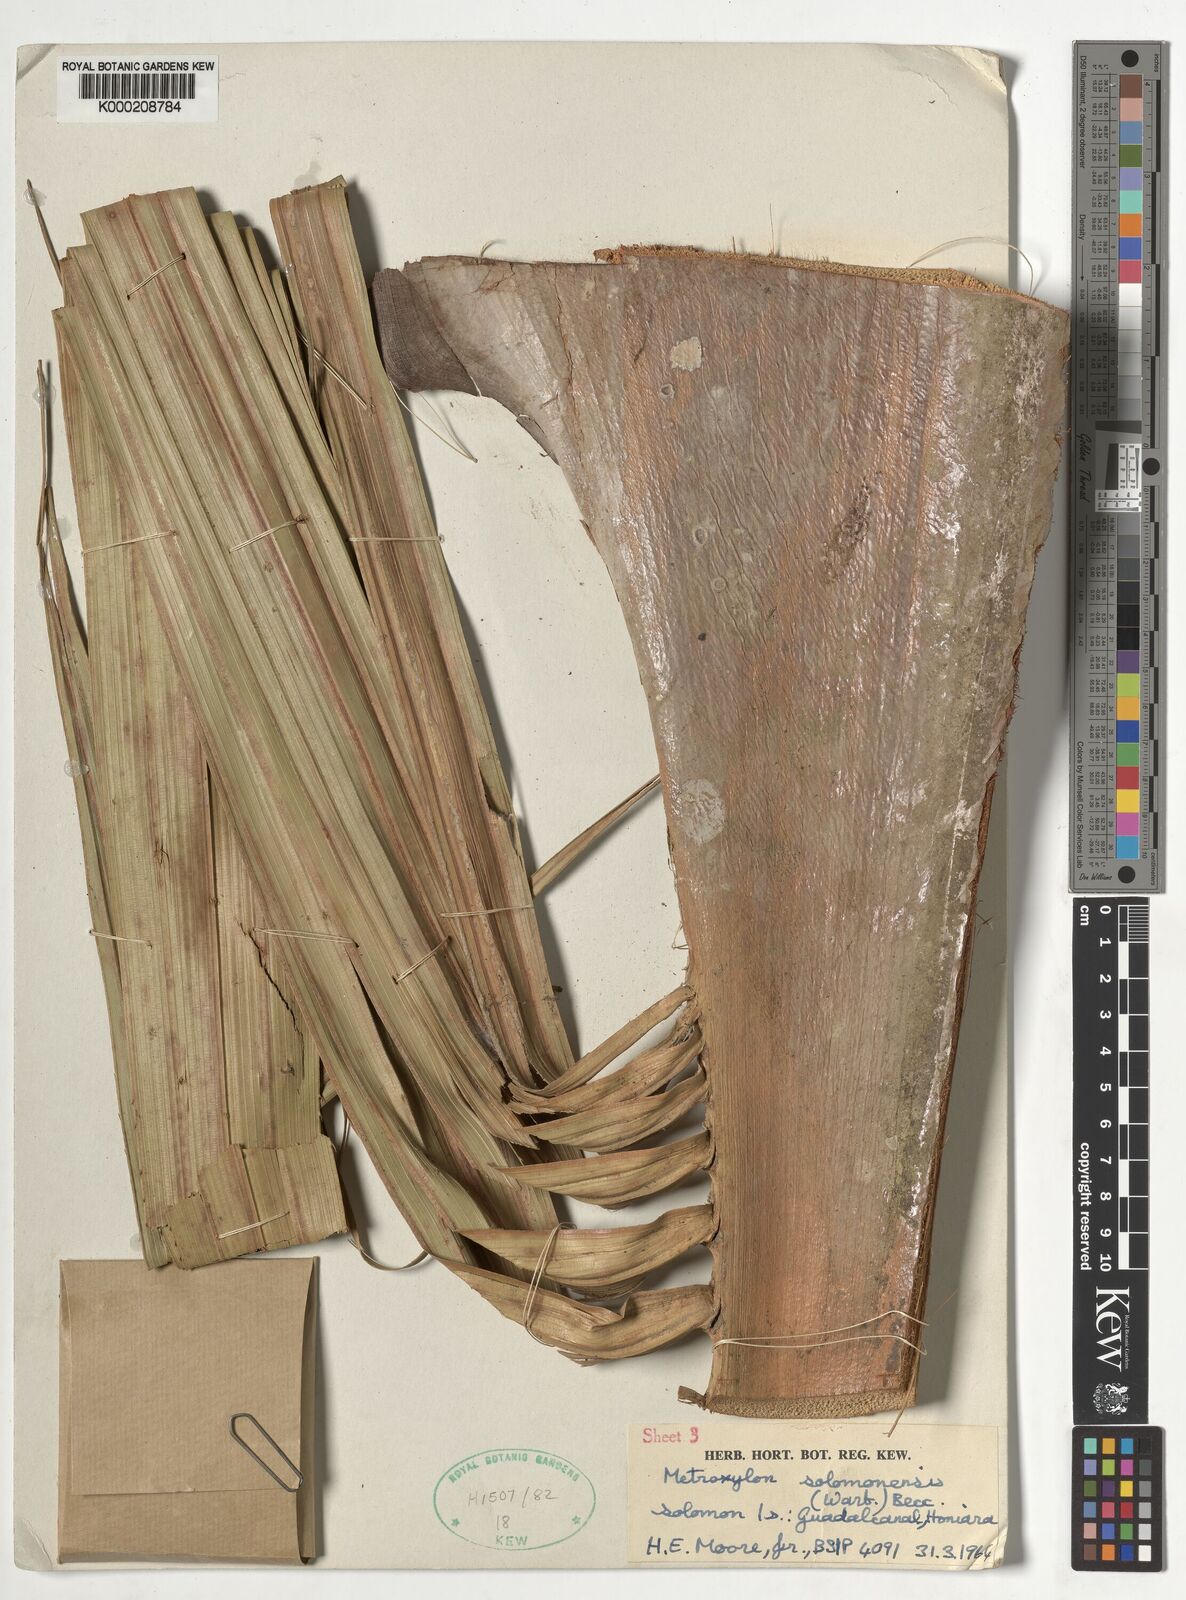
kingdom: Plantae
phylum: Tracheophyta
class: Liliopsida
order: Arecales
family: Arecaceae
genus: Metroxylon
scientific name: Metroxylon salomonense
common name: Solomon's sago palm
